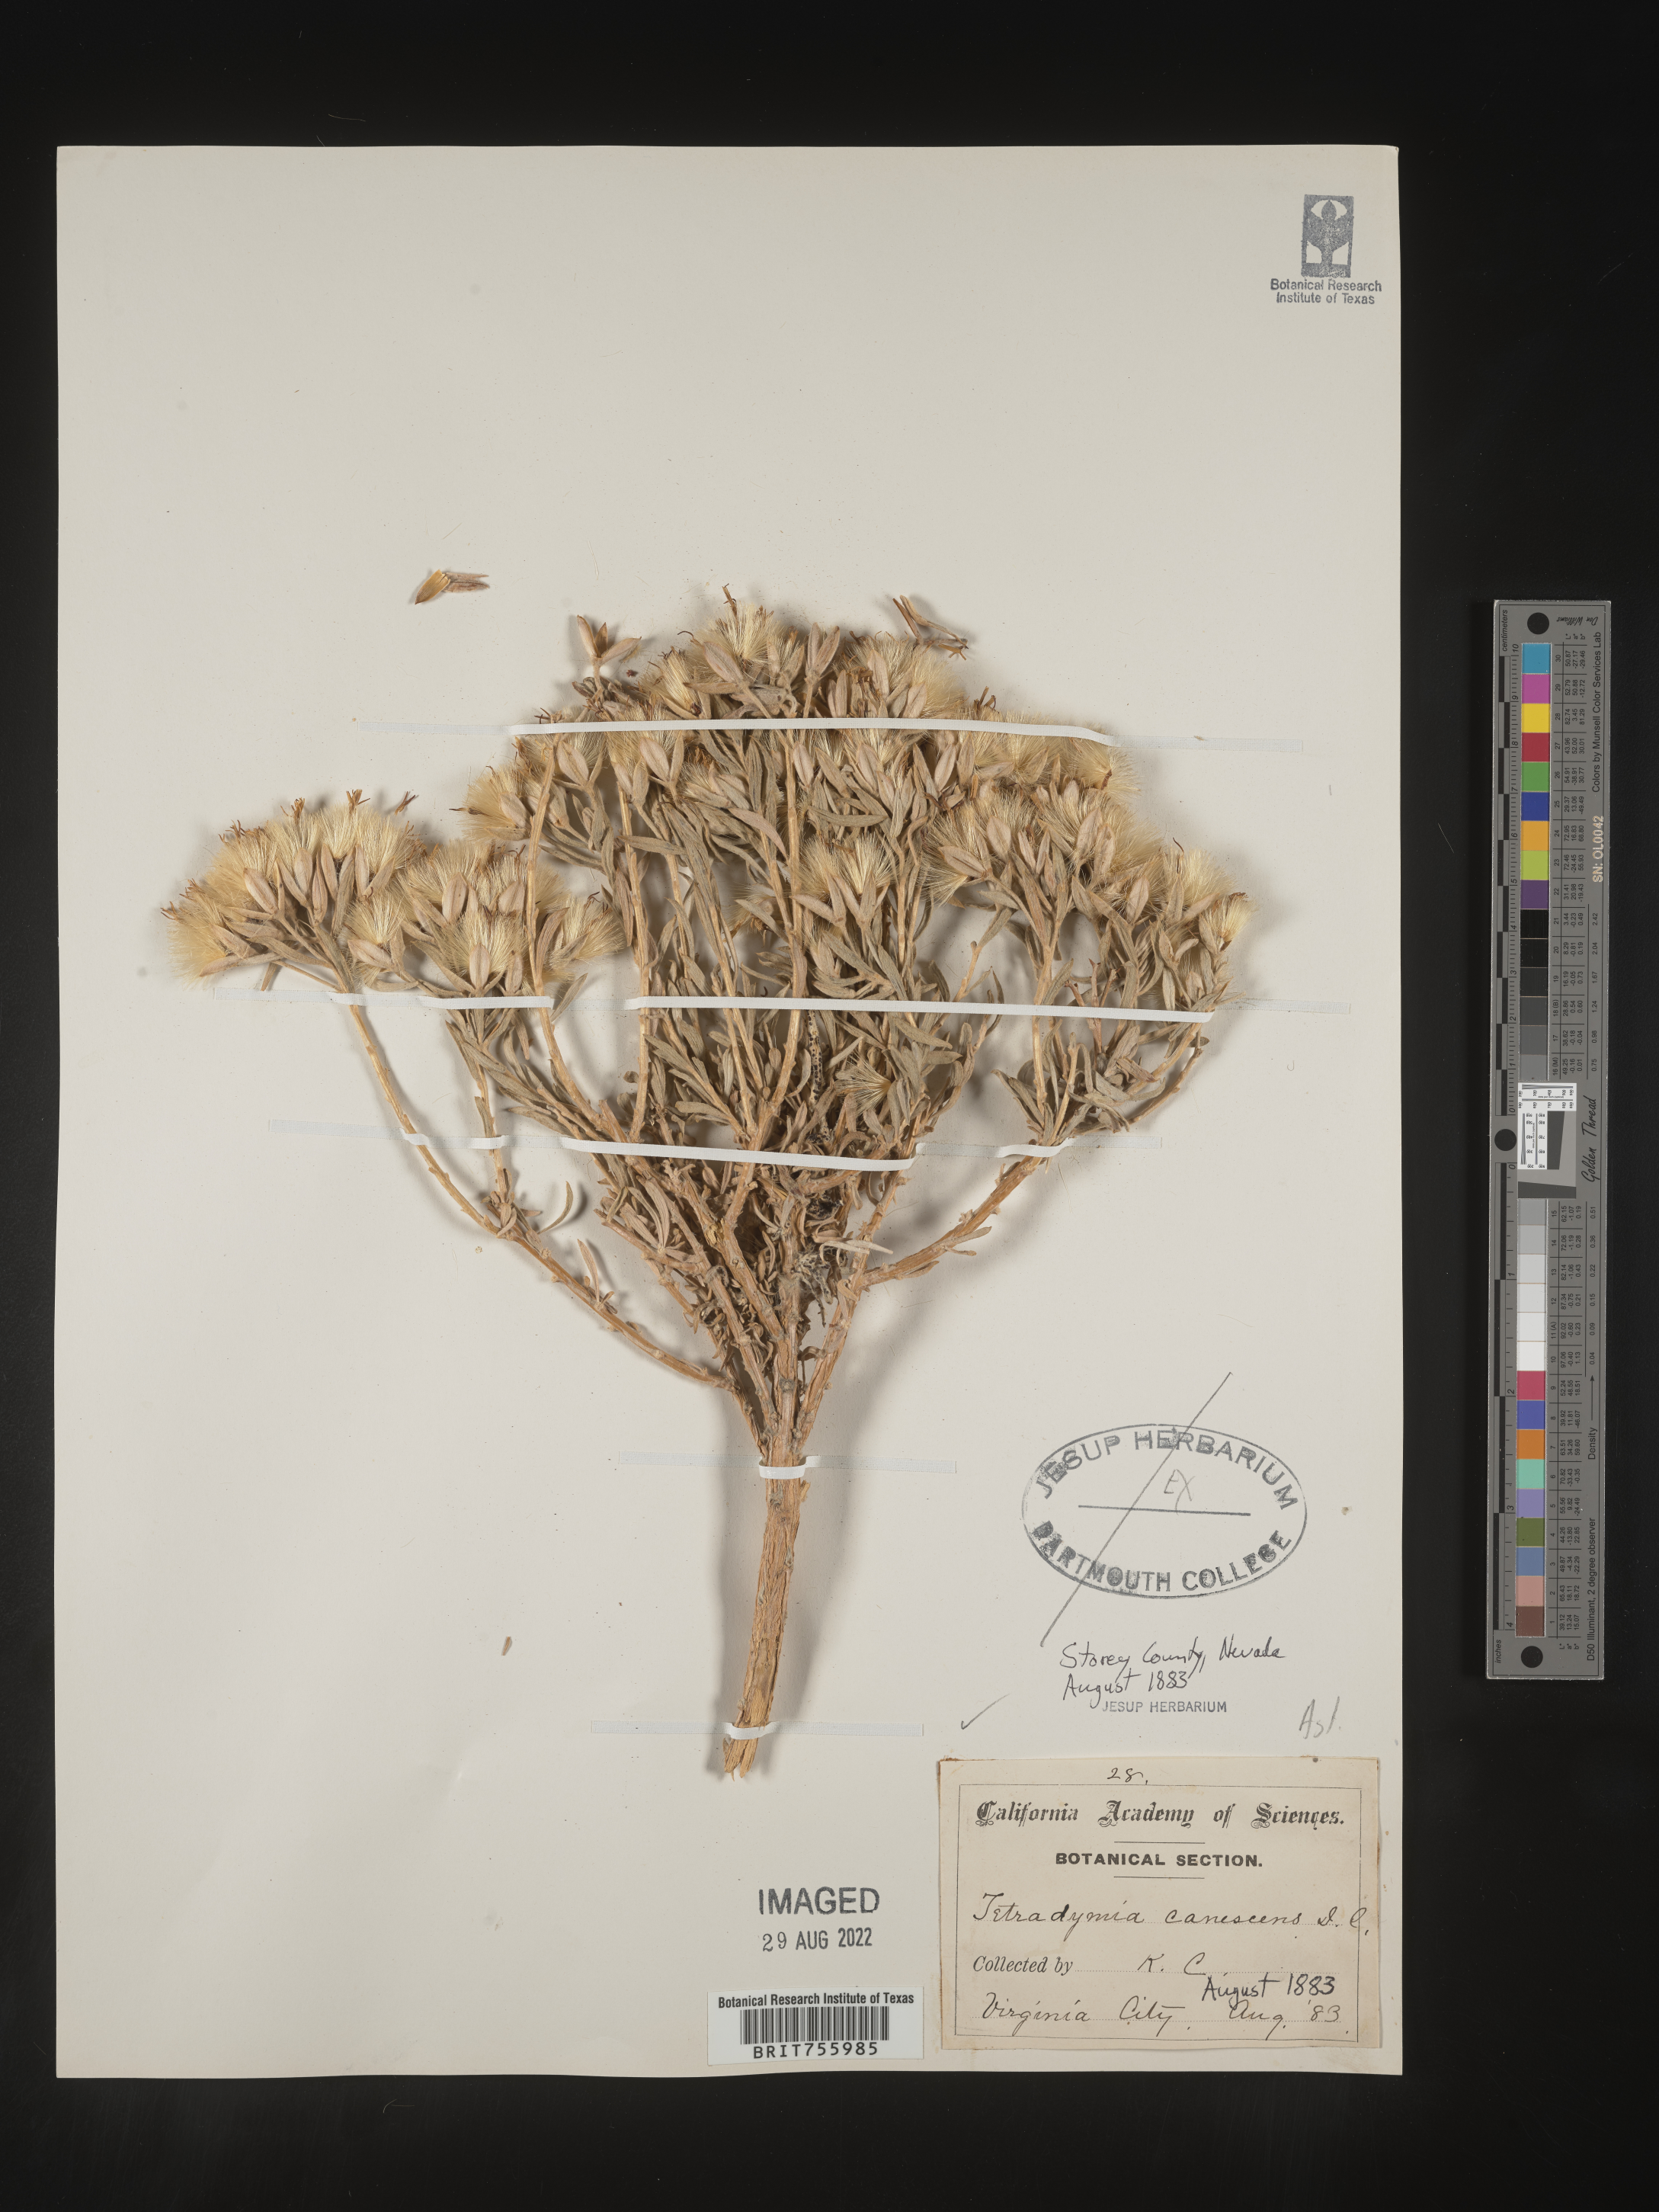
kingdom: Plantae
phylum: Tracheophyta
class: Magnoliopsida
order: Asterales
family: Asteraceae
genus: Tetradymia
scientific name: Tetradymia canescens
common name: Spineless horsebrush
